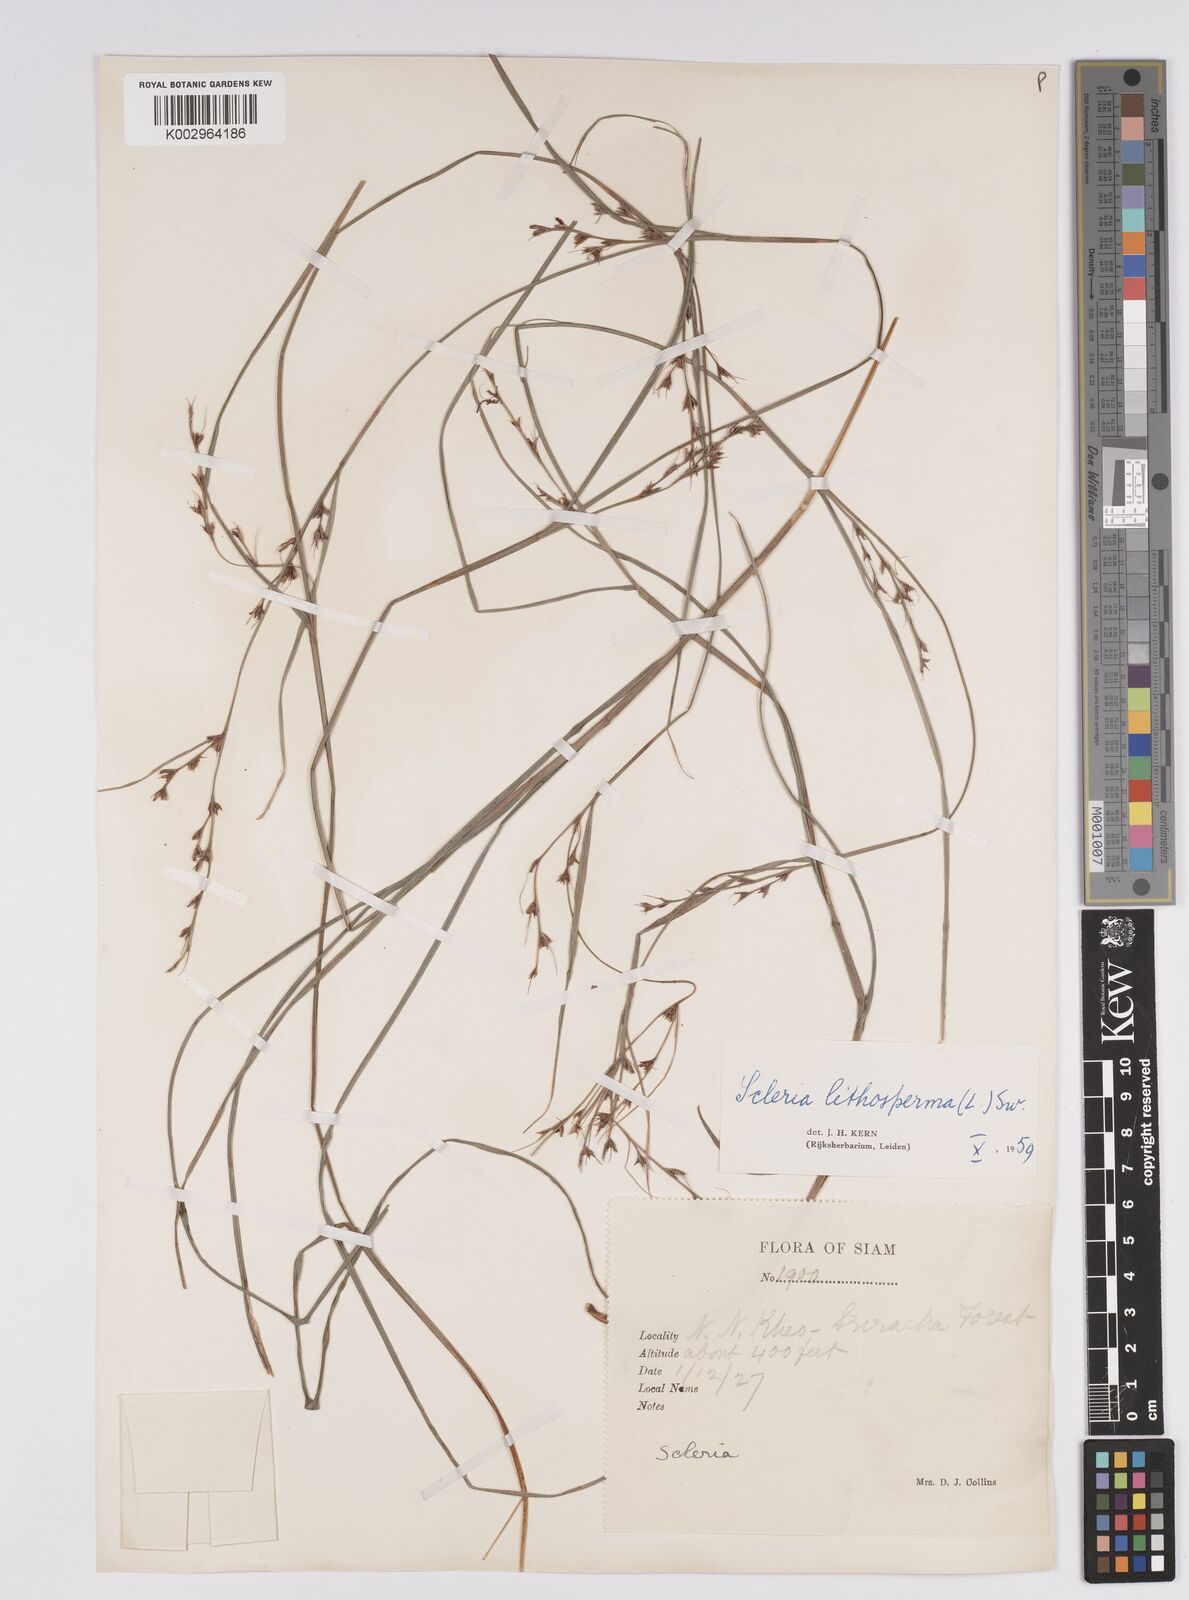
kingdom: Plantae
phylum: Tracheophyta
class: Liliopsida
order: Poales
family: Cyperaceae
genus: Scleria
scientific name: Scleria lithosperma
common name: Florida keys nut-rush
